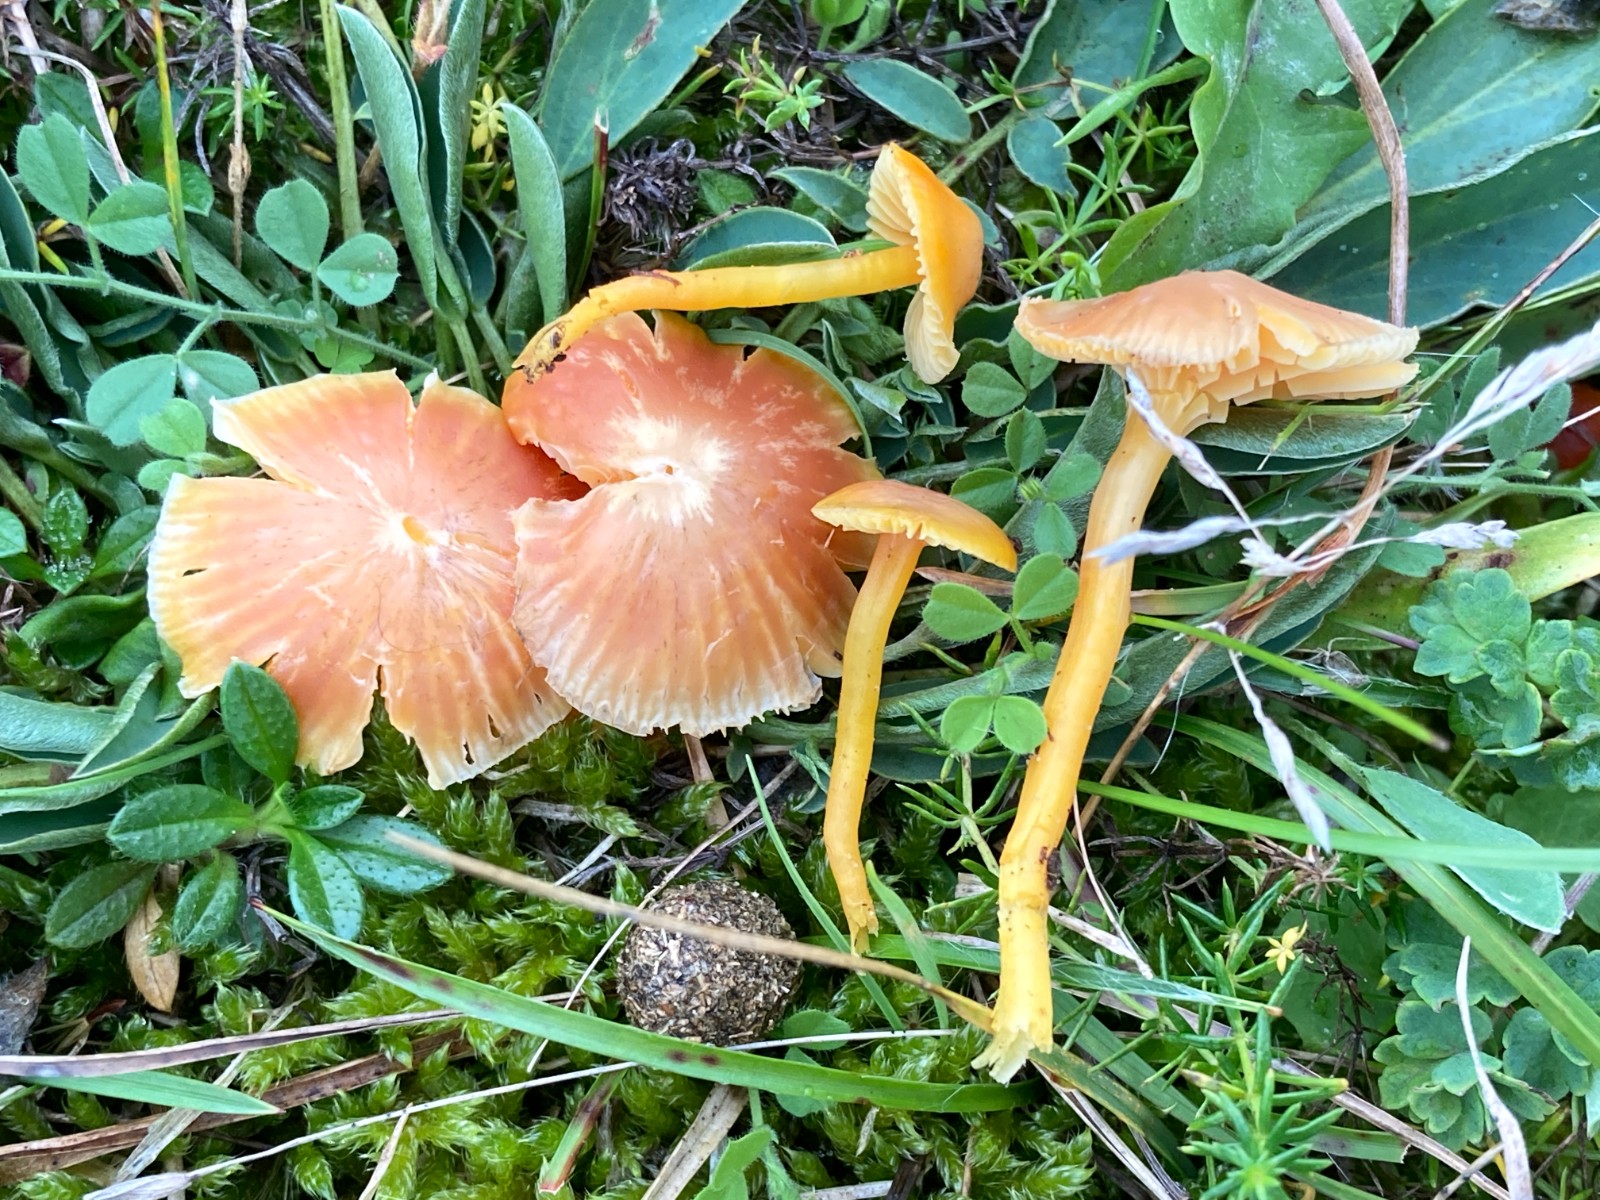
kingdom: Fungi
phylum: Basidiomycota
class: Agaricomycetes
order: Agaricales
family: Hygrophoraceae
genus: Hygrocybe
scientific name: Hygrocybe
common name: vokshat
